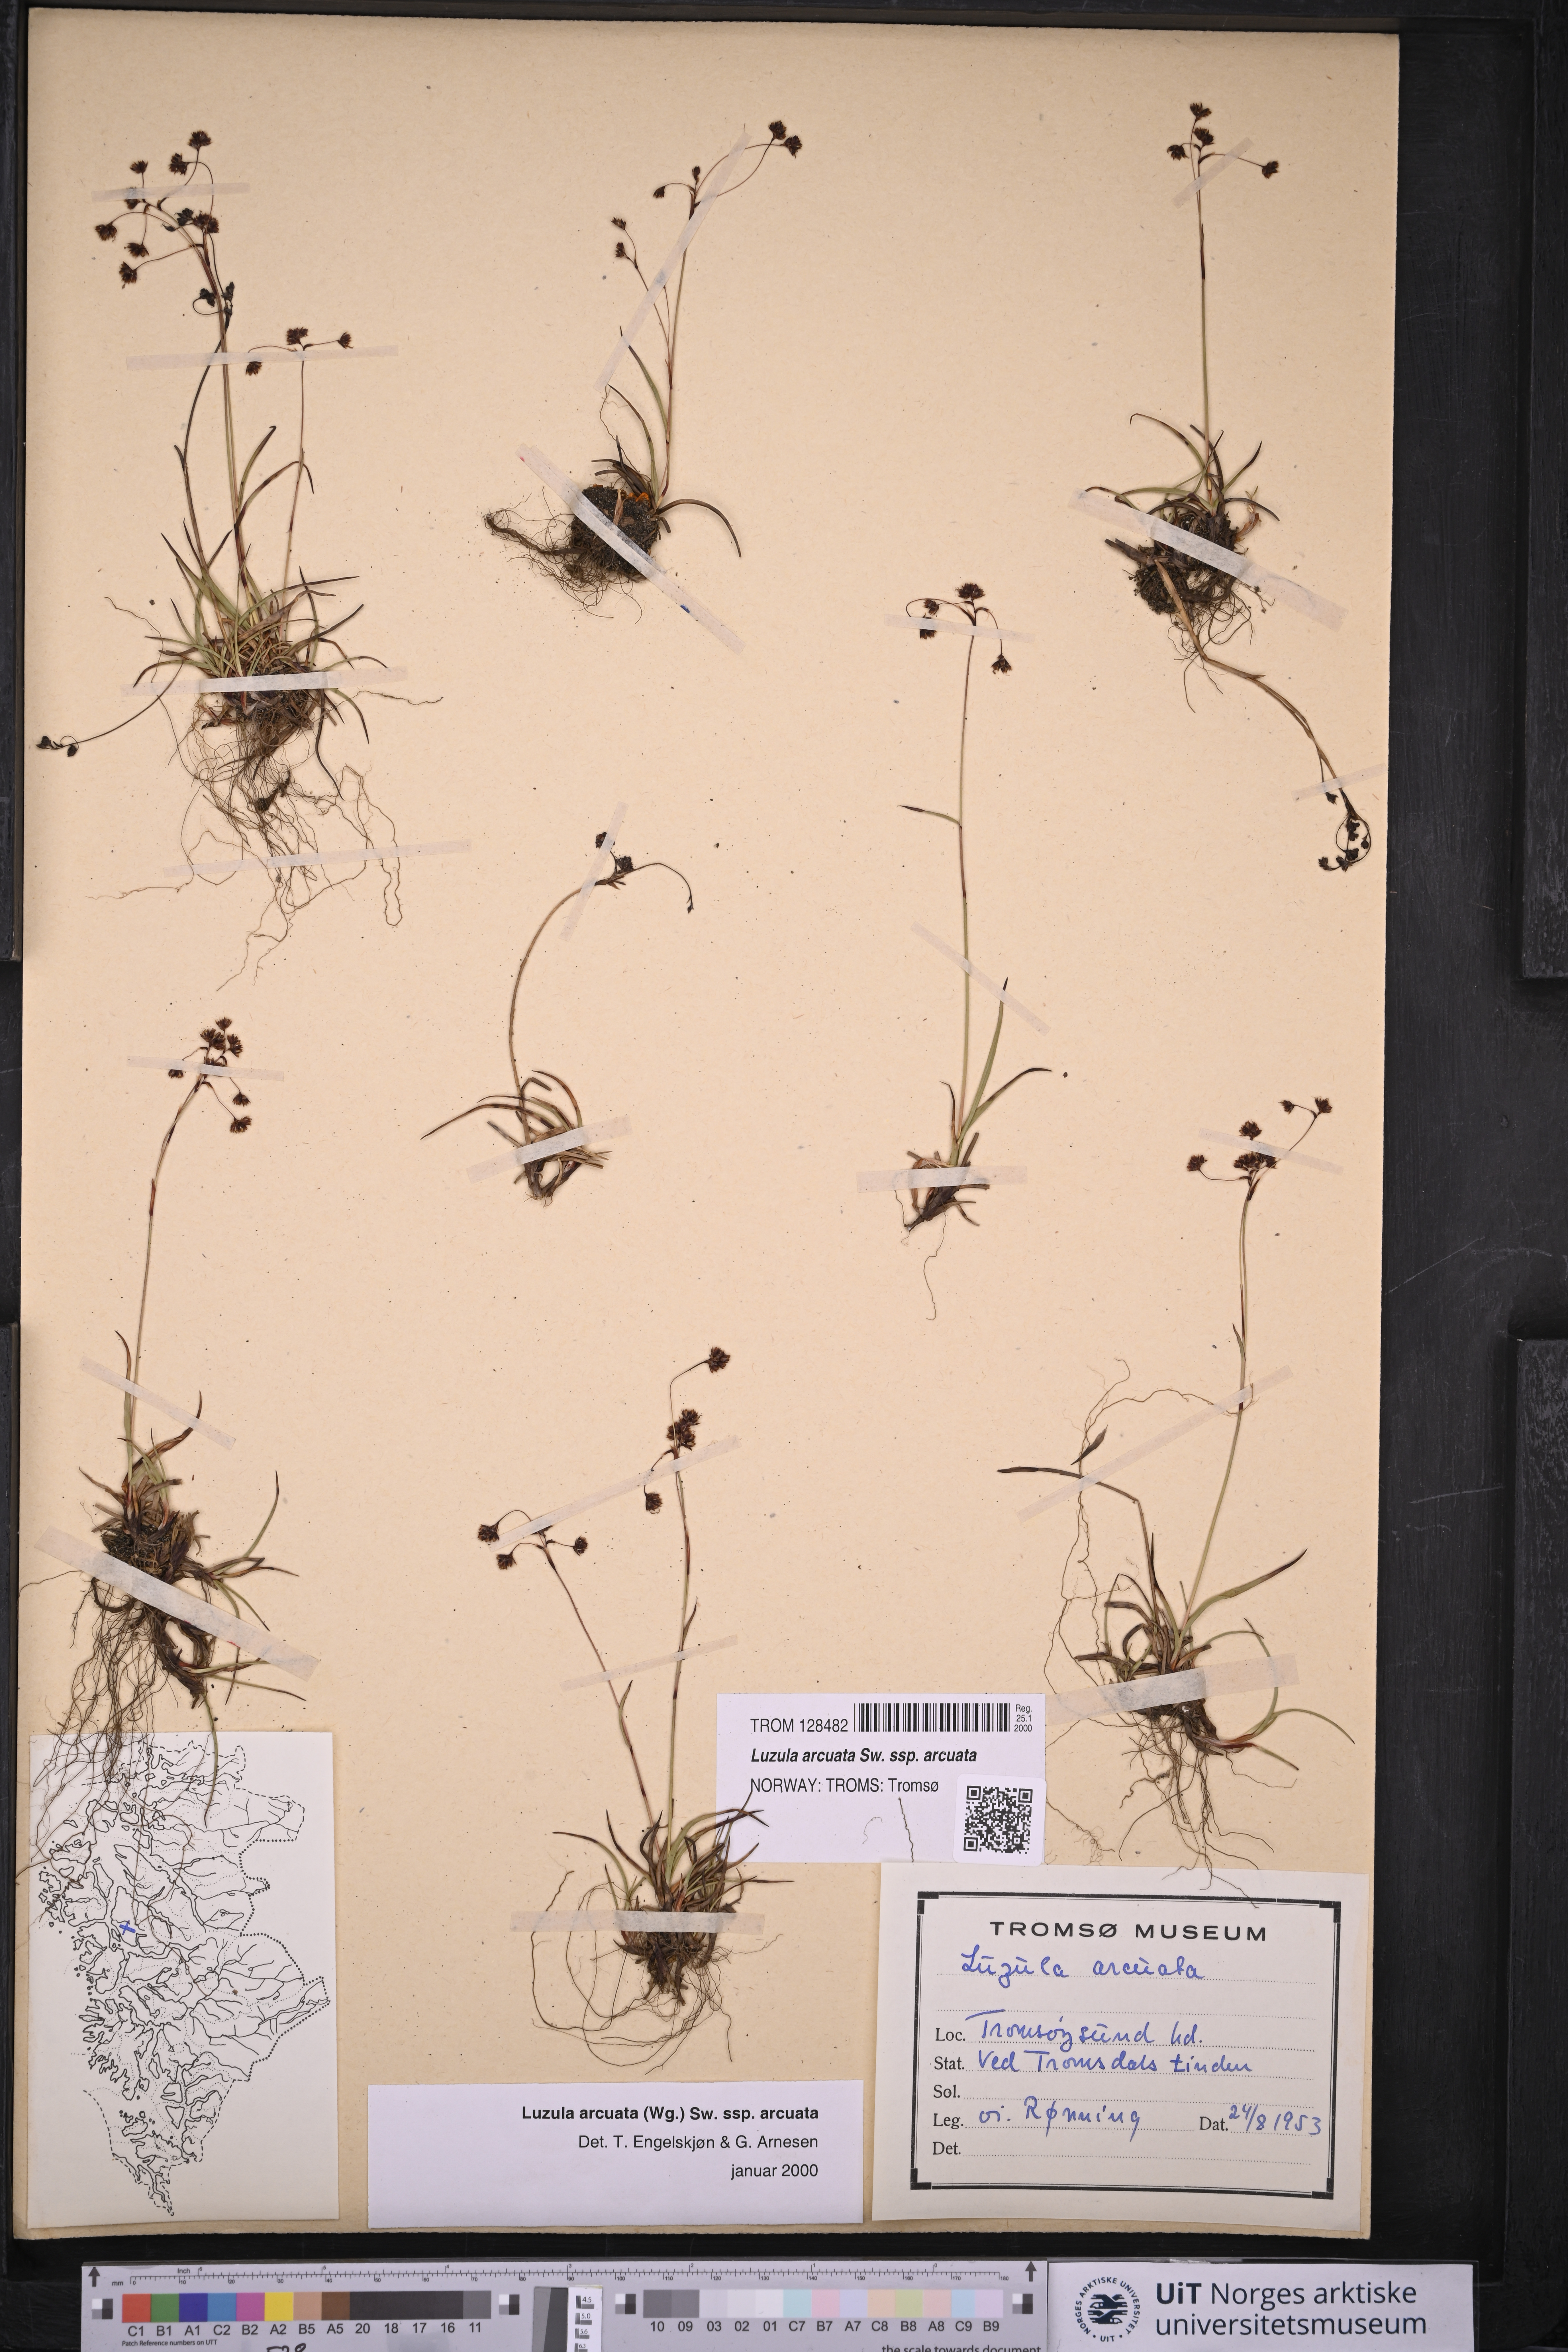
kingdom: Plantae
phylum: Tracheophyta
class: Liliopsida
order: Poales
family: Juncaceae
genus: Luzula
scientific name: Luzula arcuata
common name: Curved wood-rush
